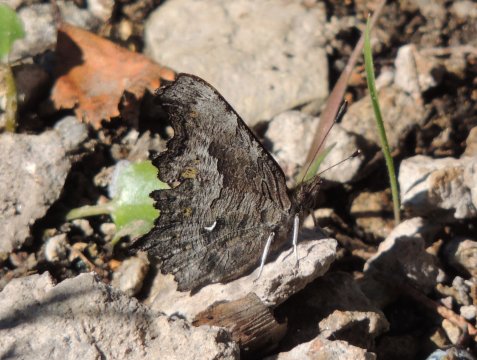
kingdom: Animalia
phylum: Arthropoda
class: Insecta
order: Lepidoptera
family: Nymphalidae
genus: Polygonia
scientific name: Polygonia gracilis
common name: Hoary Comma
